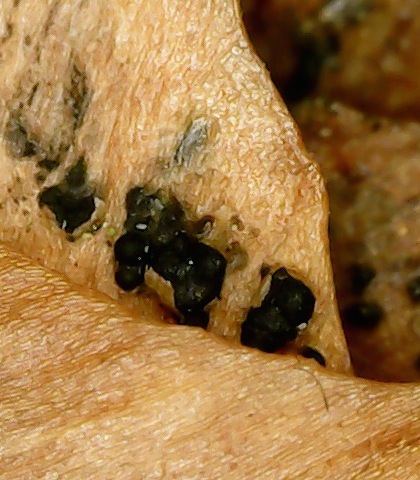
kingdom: Fungi
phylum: Ascomycota
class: Sordariomycetes
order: Diaporthales
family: Gnomoniaceae
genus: Sirococcus
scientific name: Sirococcus conigenus
